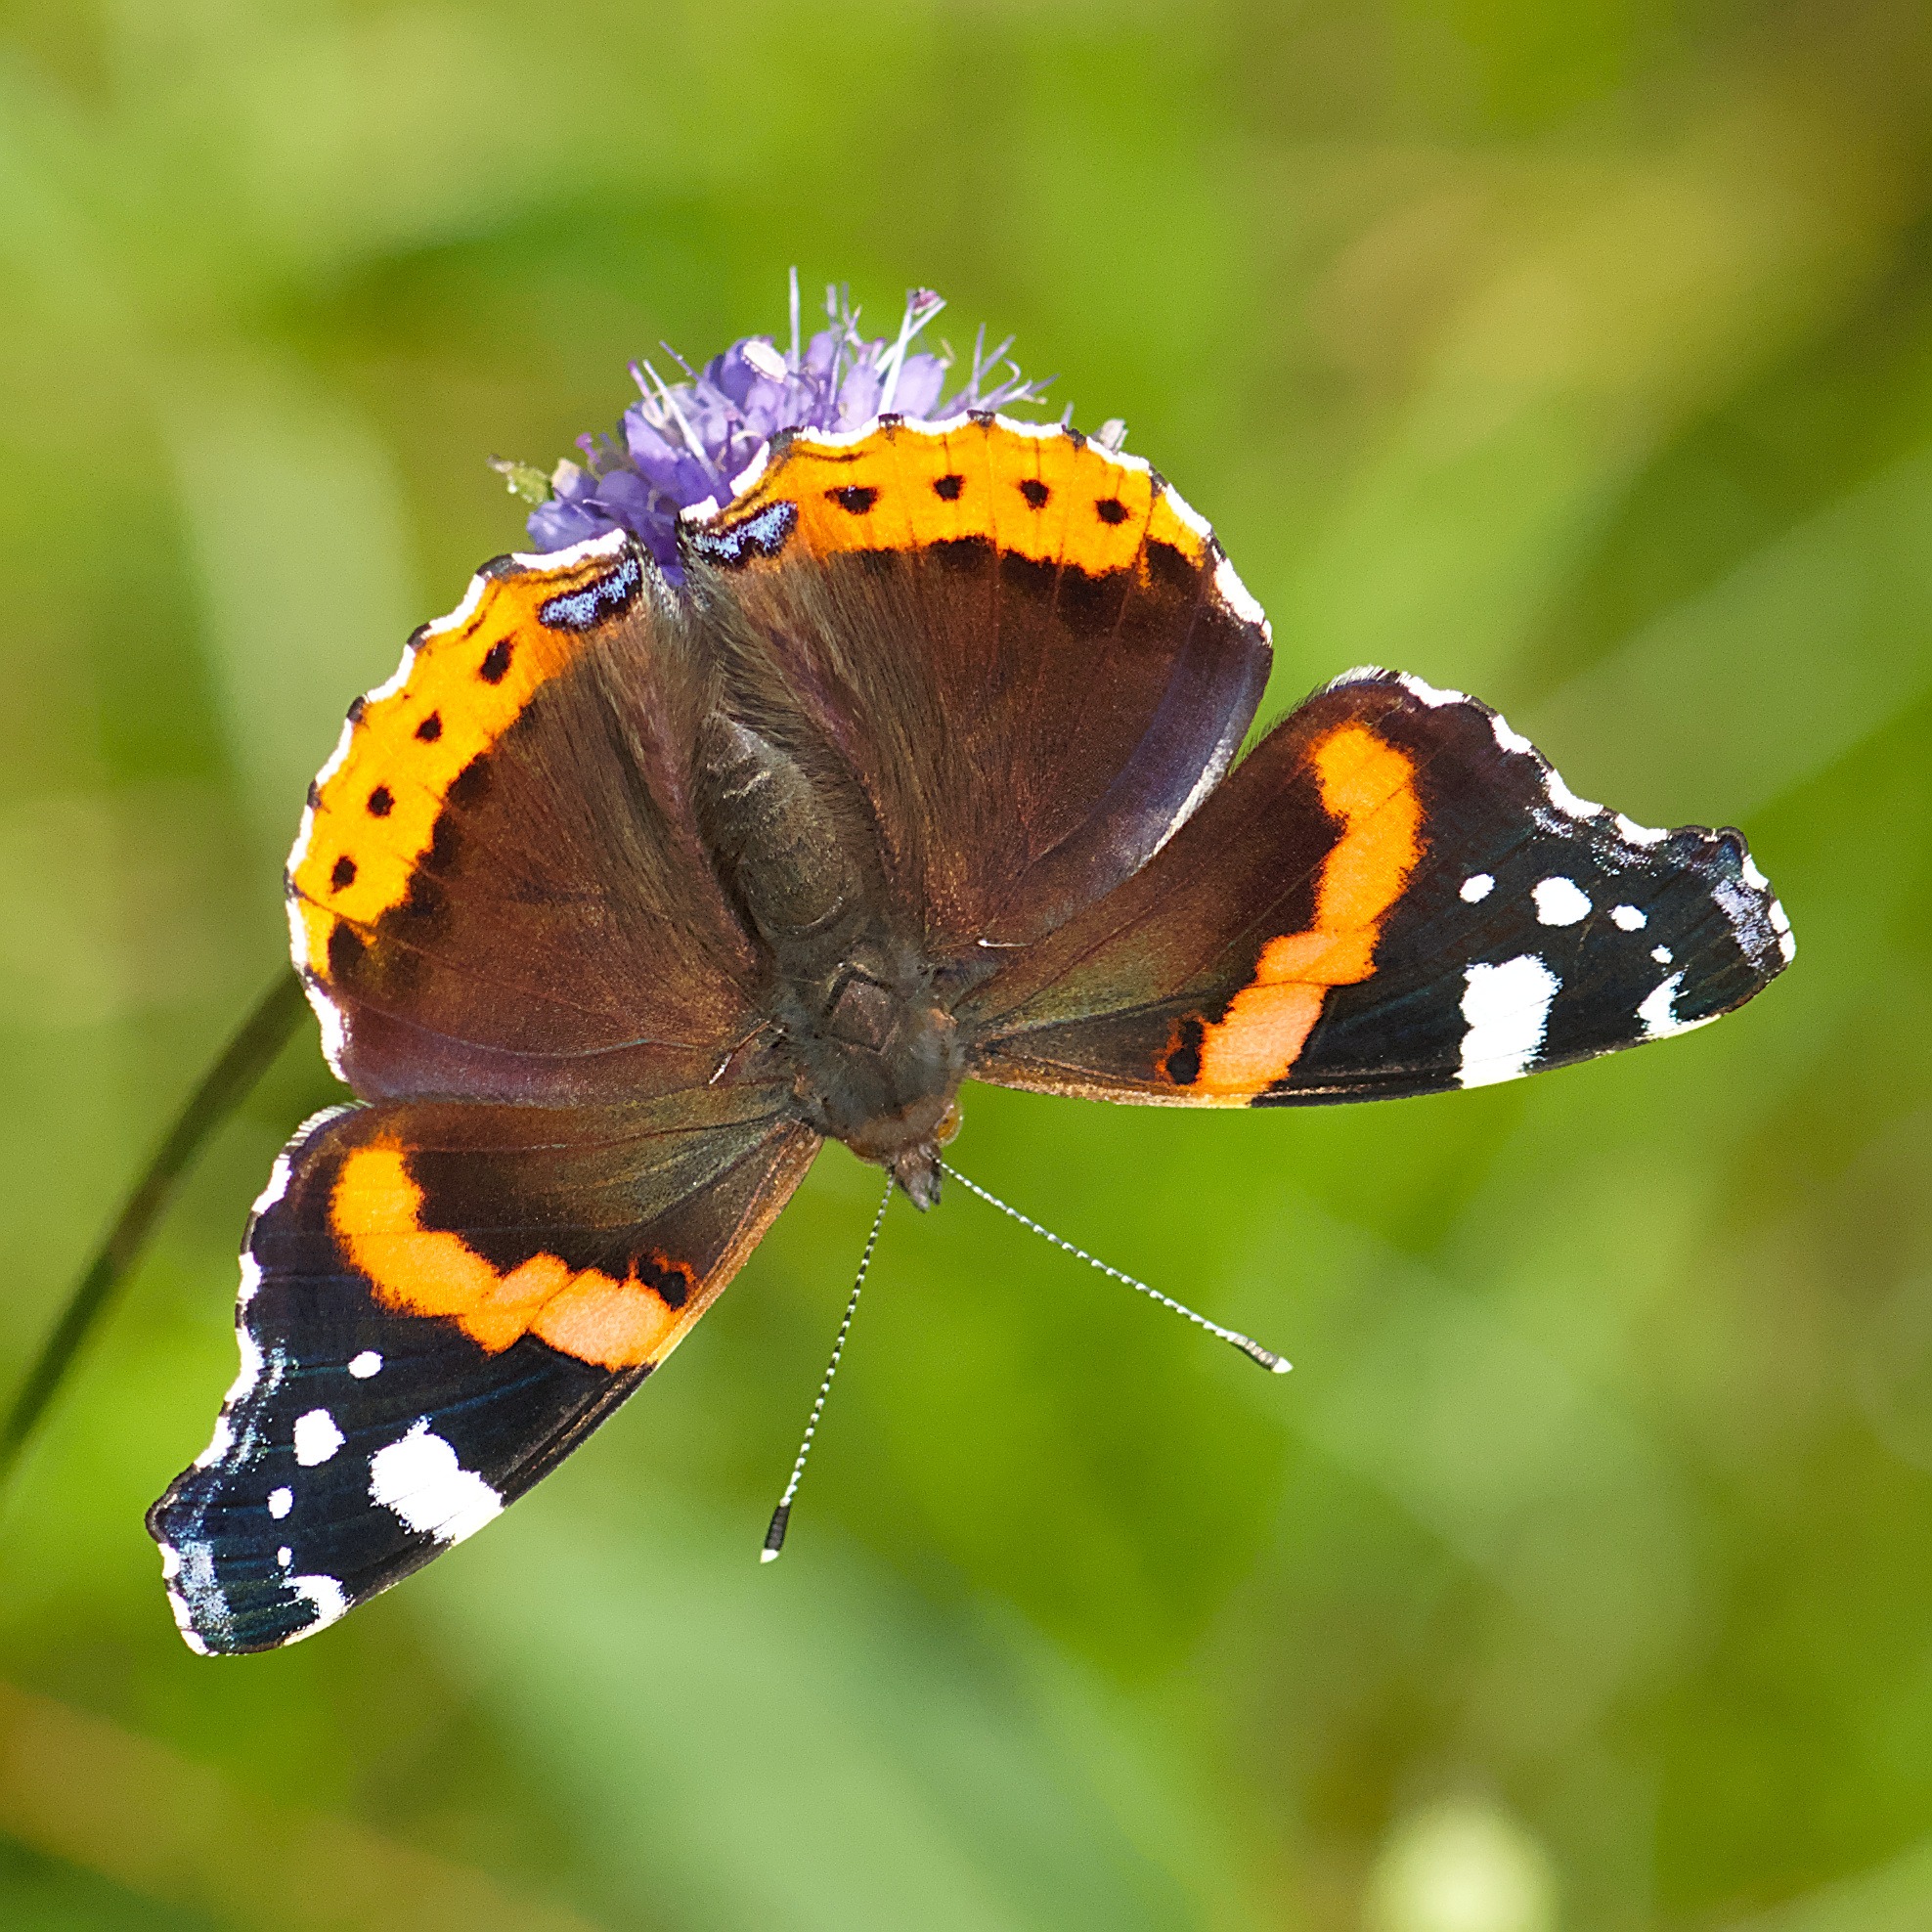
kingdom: Animalia
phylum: Arthropoda
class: Insecta
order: Lepidoptera
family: Nymphalidae
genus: Vanessa
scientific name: Vanessa atalanta
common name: Admiral
